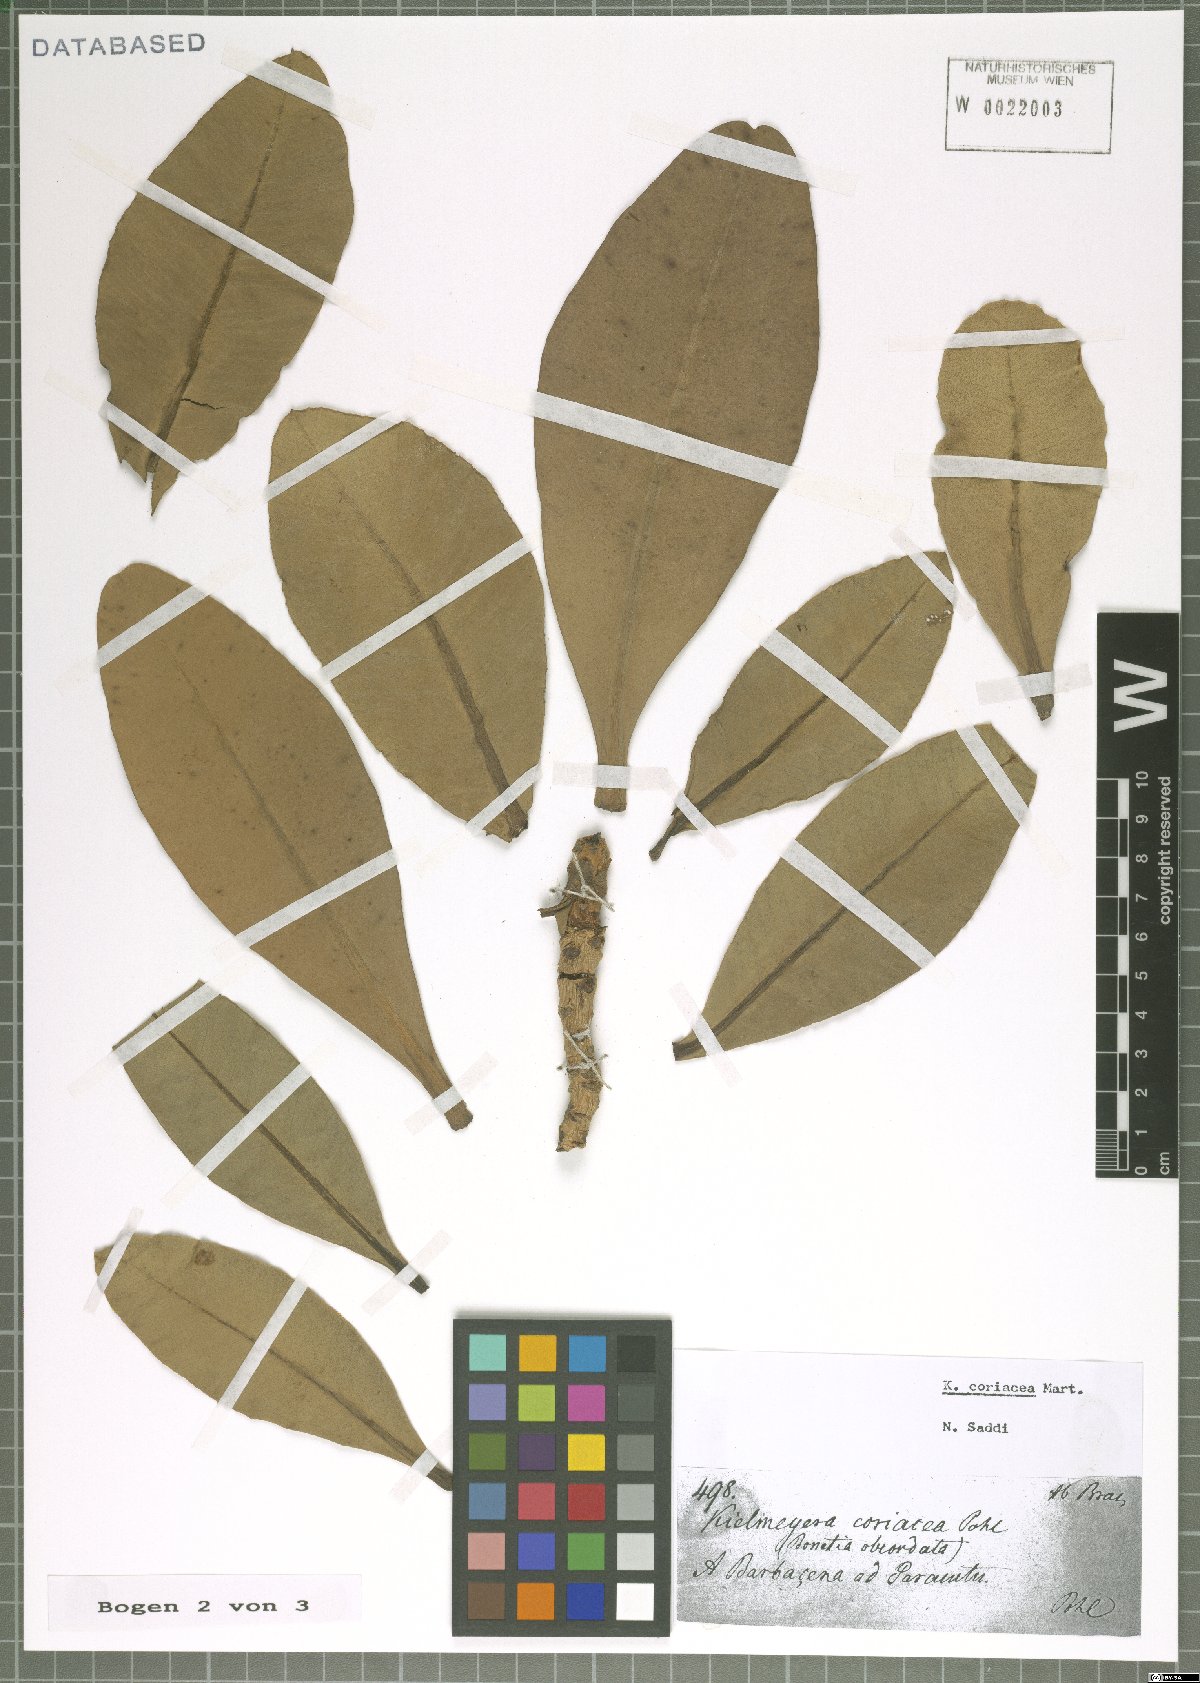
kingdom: Plantae
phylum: Tracheophyta
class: Magnoliopsida
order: Malpighiales
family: Calophyllaceae
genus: Kielmeyera
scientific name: Kielmeyera coriacea
